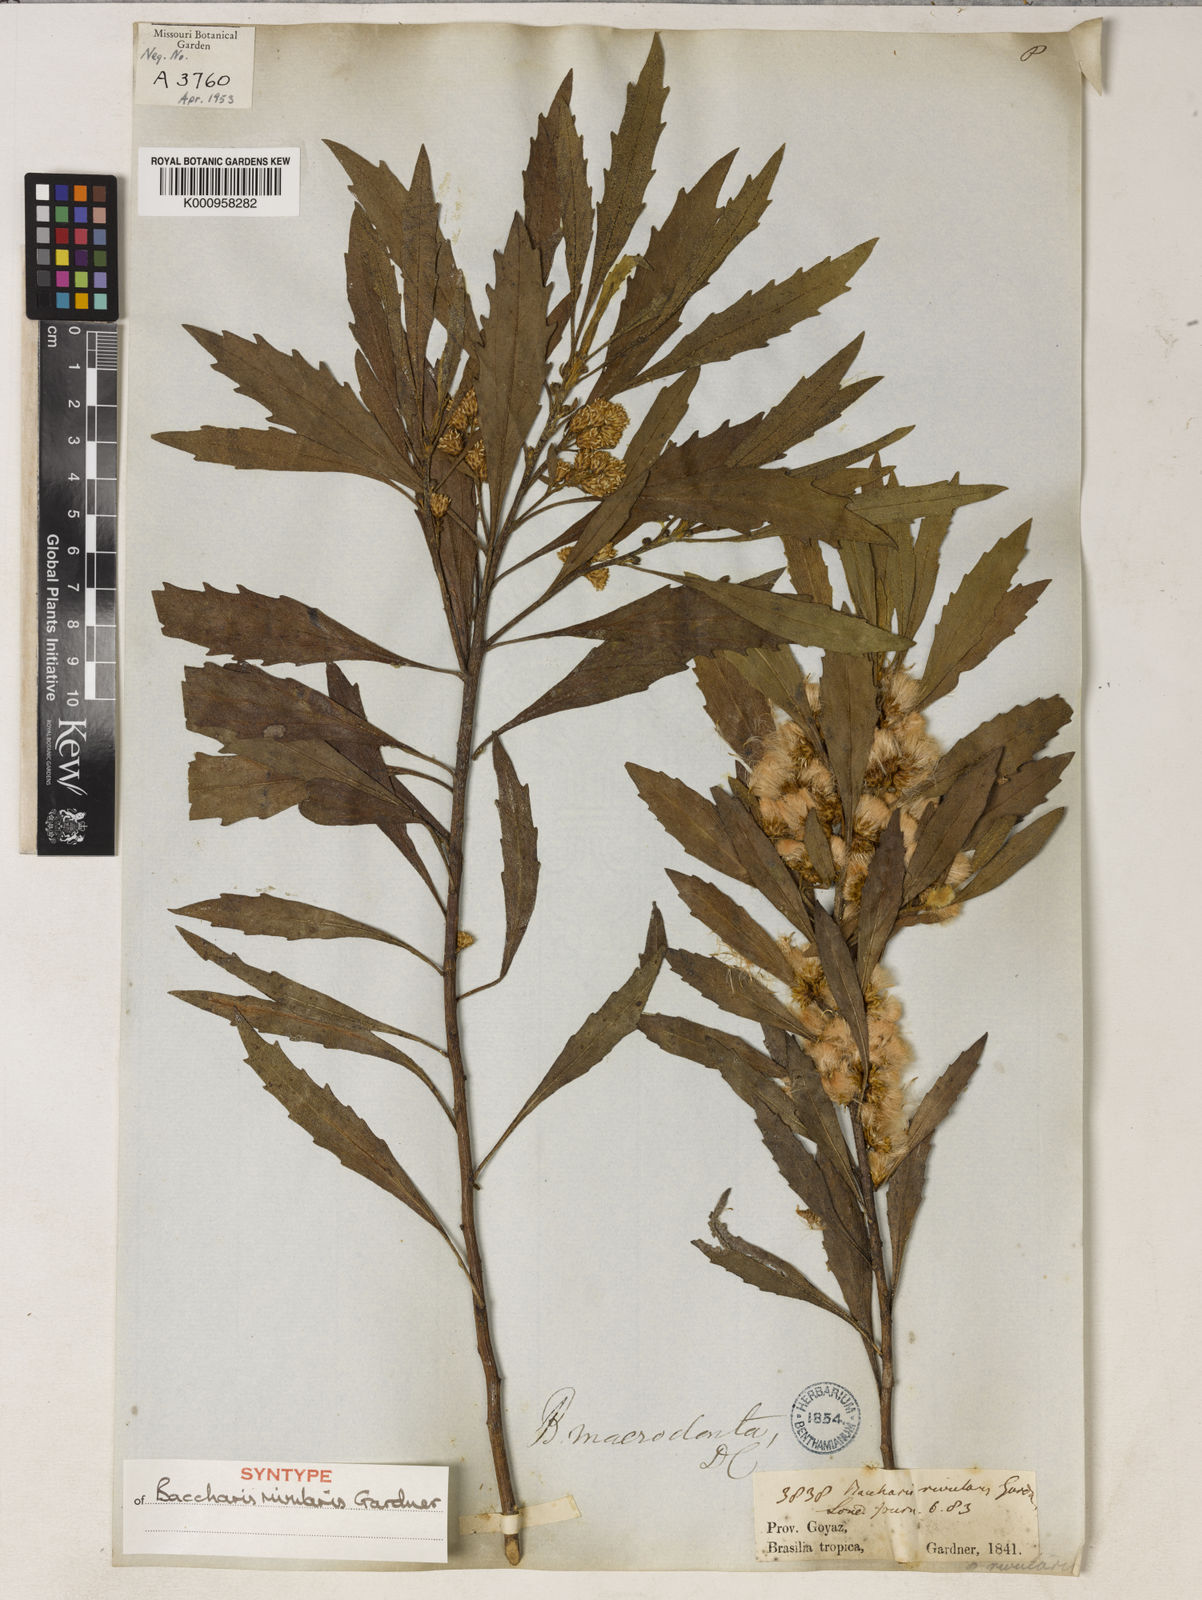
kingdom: Plantae
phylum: Tracheophyta
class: Magnoliopsida
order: Asterales
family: Asteraceae
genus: Baccharis
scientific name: Baccharis rivularis
